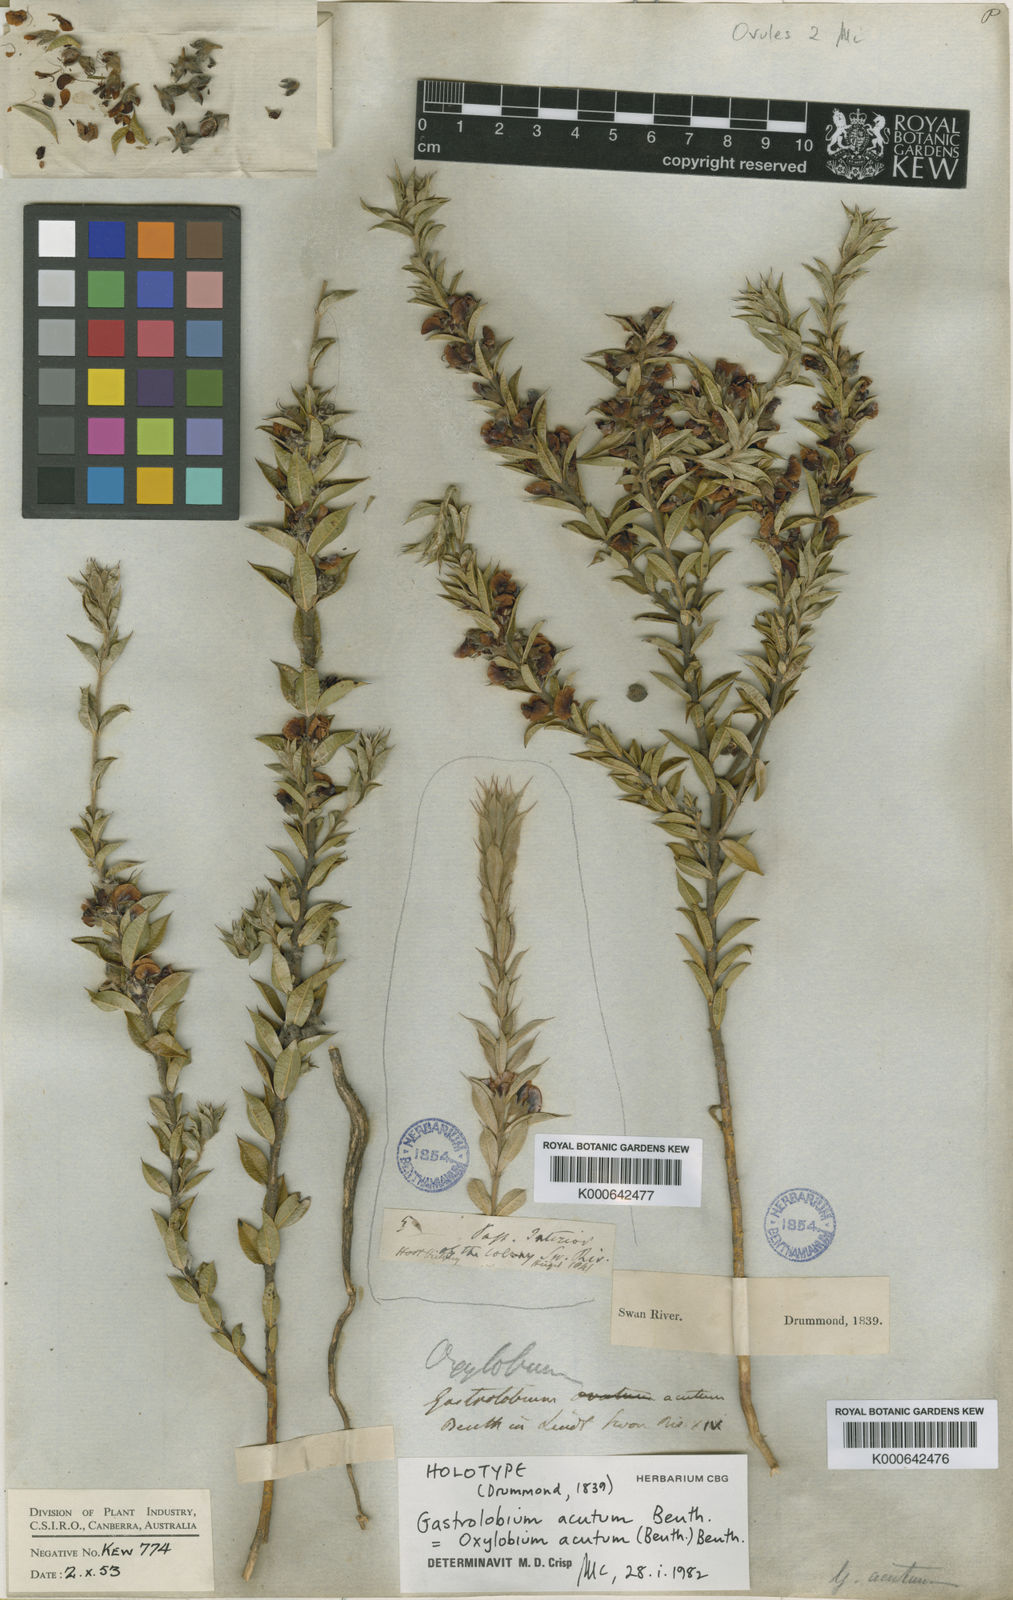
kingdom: Plantae
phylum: Tracheophyta
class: Magnoliopsida
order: Fabales
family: Fabaceae
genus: Gastrolobium
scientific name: Gastrolobium acutum
